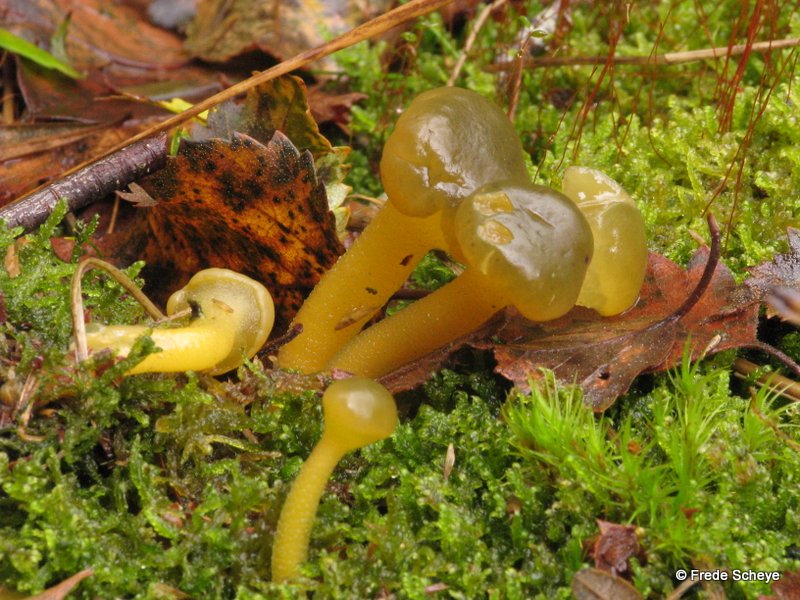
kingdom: Fungi
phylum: Ascomycota
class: Leotiomycetes
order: Leotiales
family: Leotiaceae
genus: Leotia
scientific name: Leotia lubrica
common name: ravsvamp
